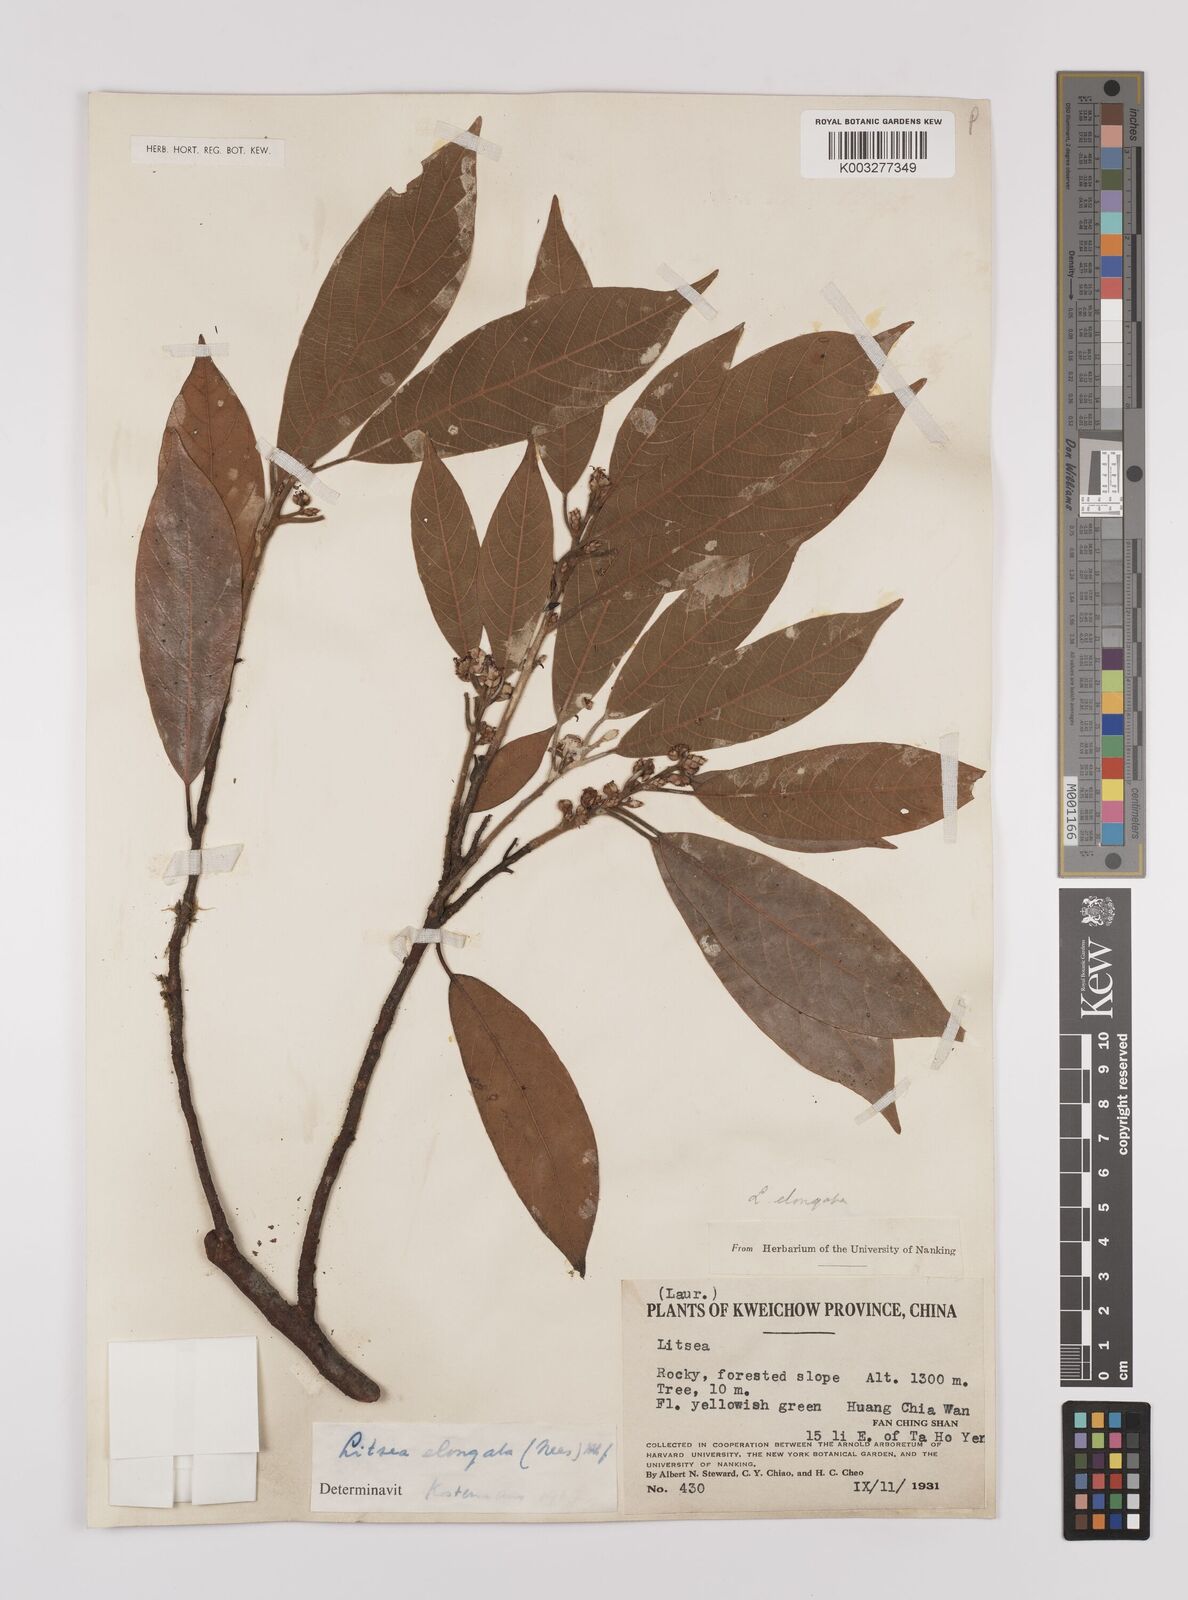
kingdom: Plantae
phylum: Tracheophyta
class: Magnoliopsida
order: Laurales
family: Lauraceae
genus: Litsea
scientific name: Litsea elongata
